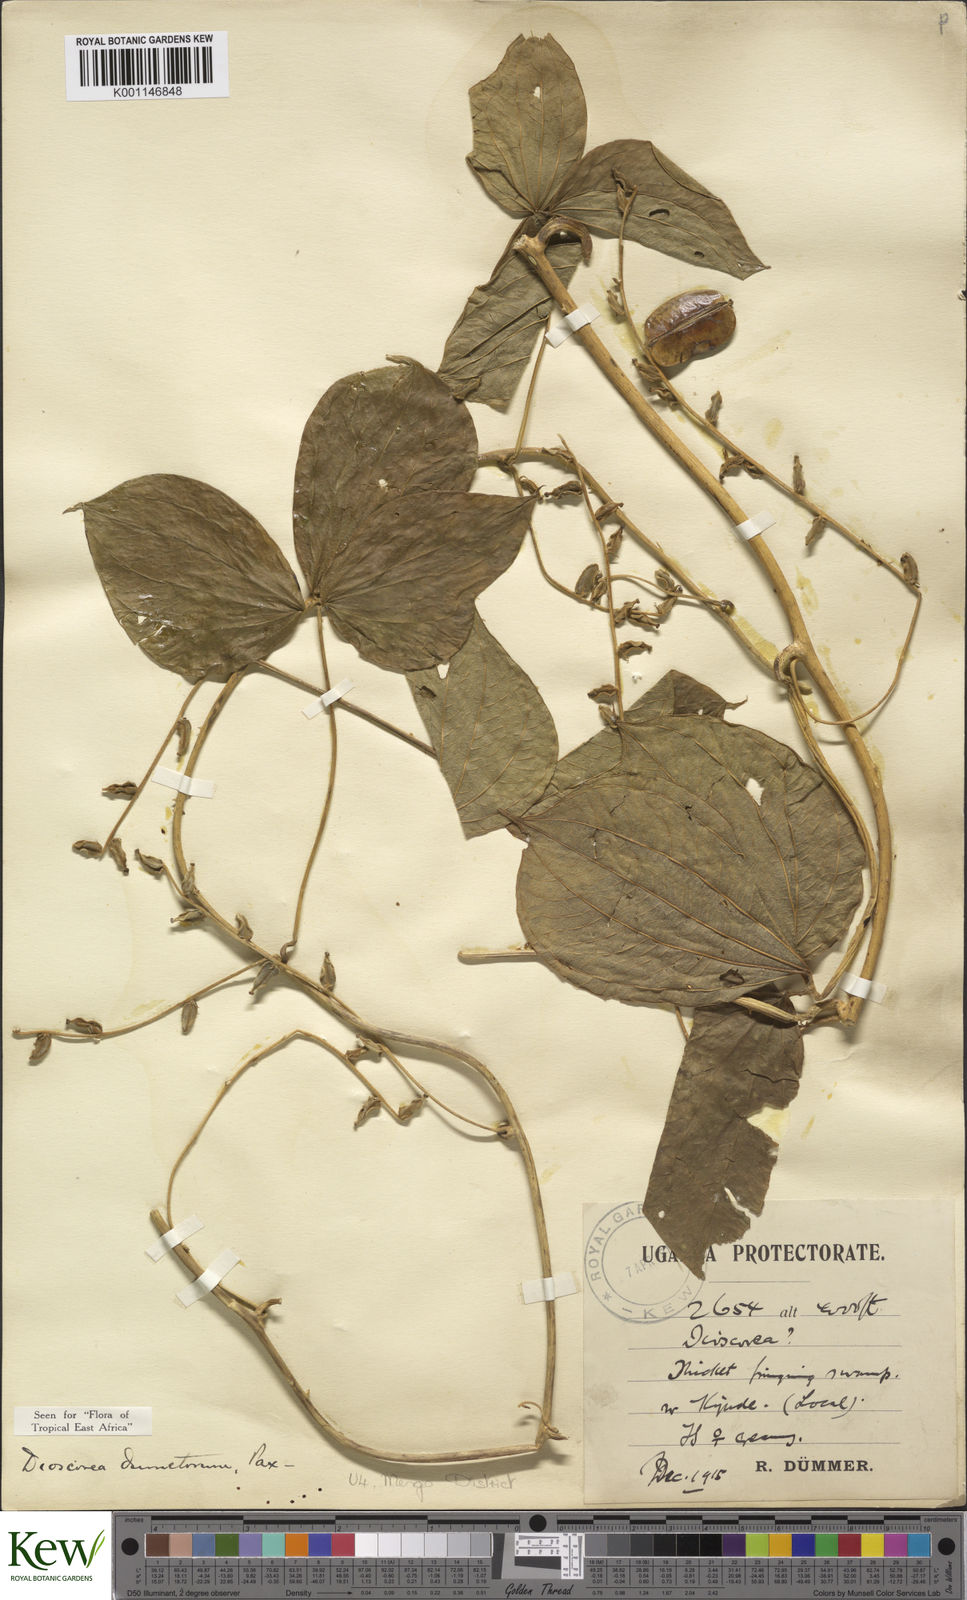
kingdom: Plantae
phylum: Tracheophyta
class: Liliopsida
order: Dioscoreales
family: Dioscoreaceae
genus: Dioscorea
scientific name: Dioscorea dumetorum
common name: African bitter yam
